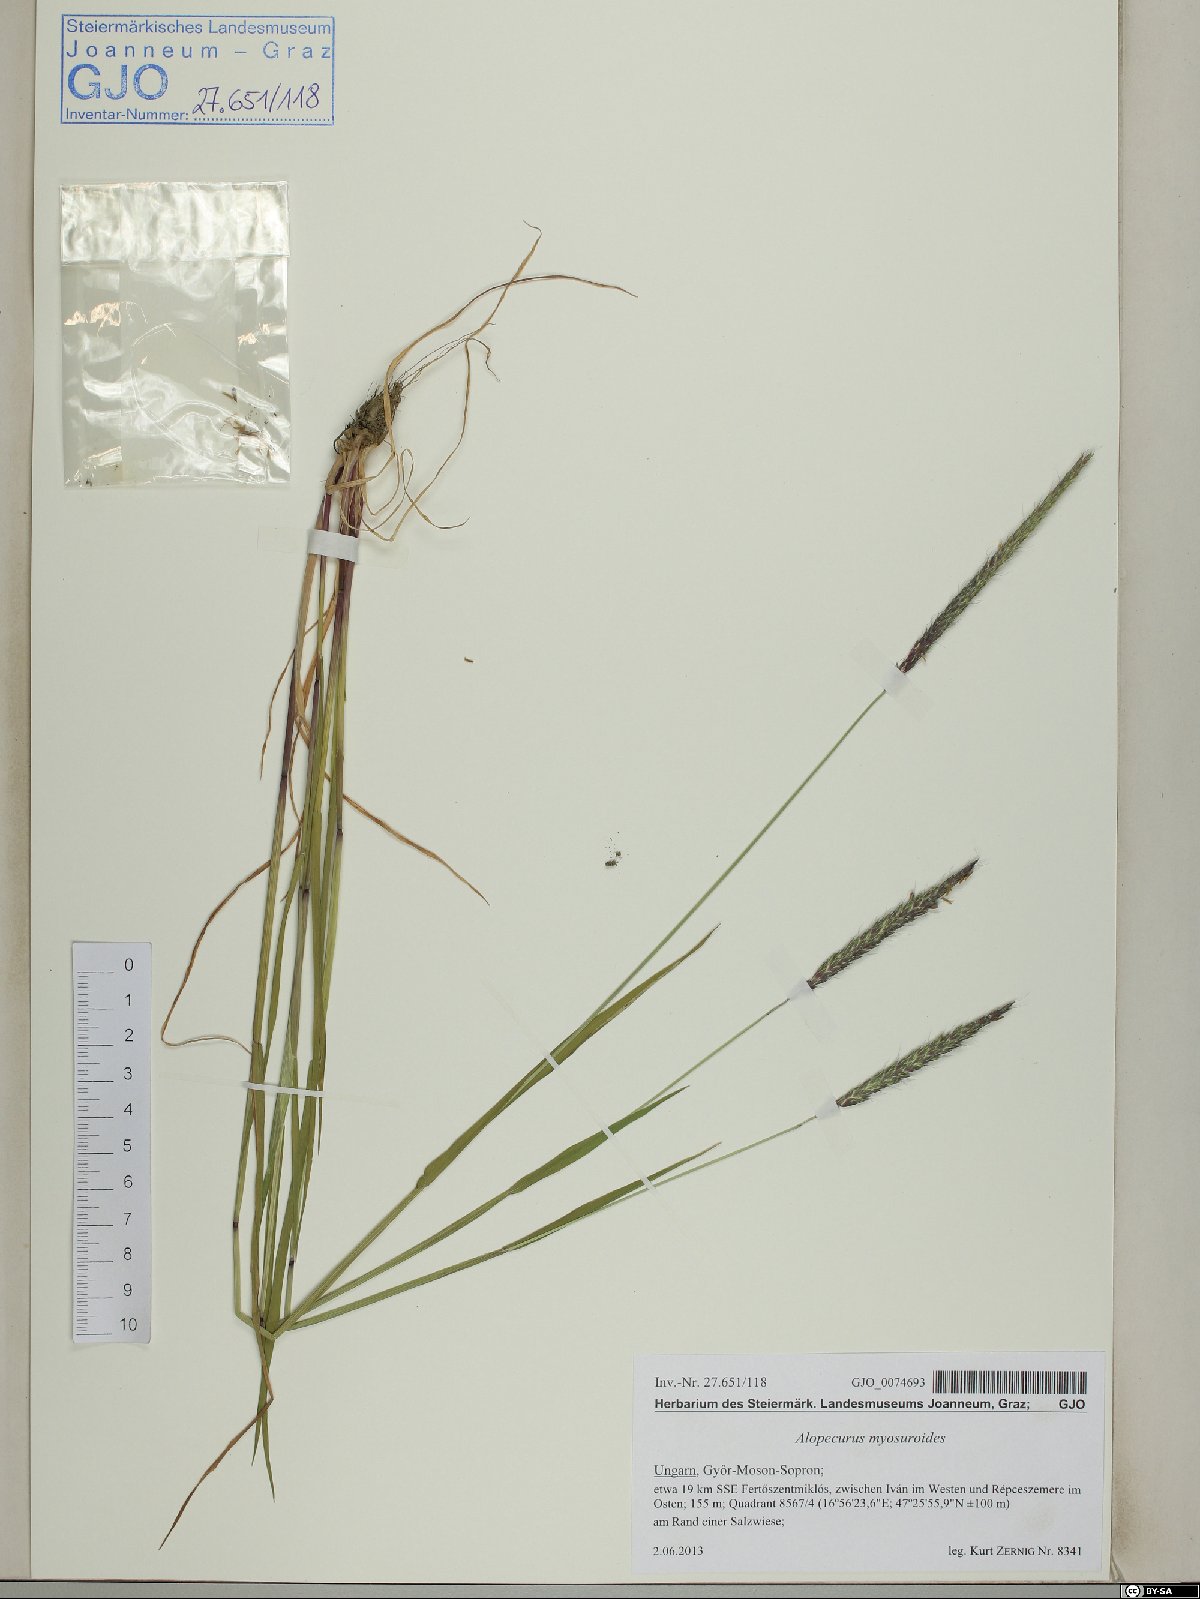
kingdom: Plantae
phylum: Tracheophyta
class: Liliopsida
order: Poales
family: Poaceae
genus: Alopecurus
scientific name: Alopecurus myosuroides
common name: Black-grass
